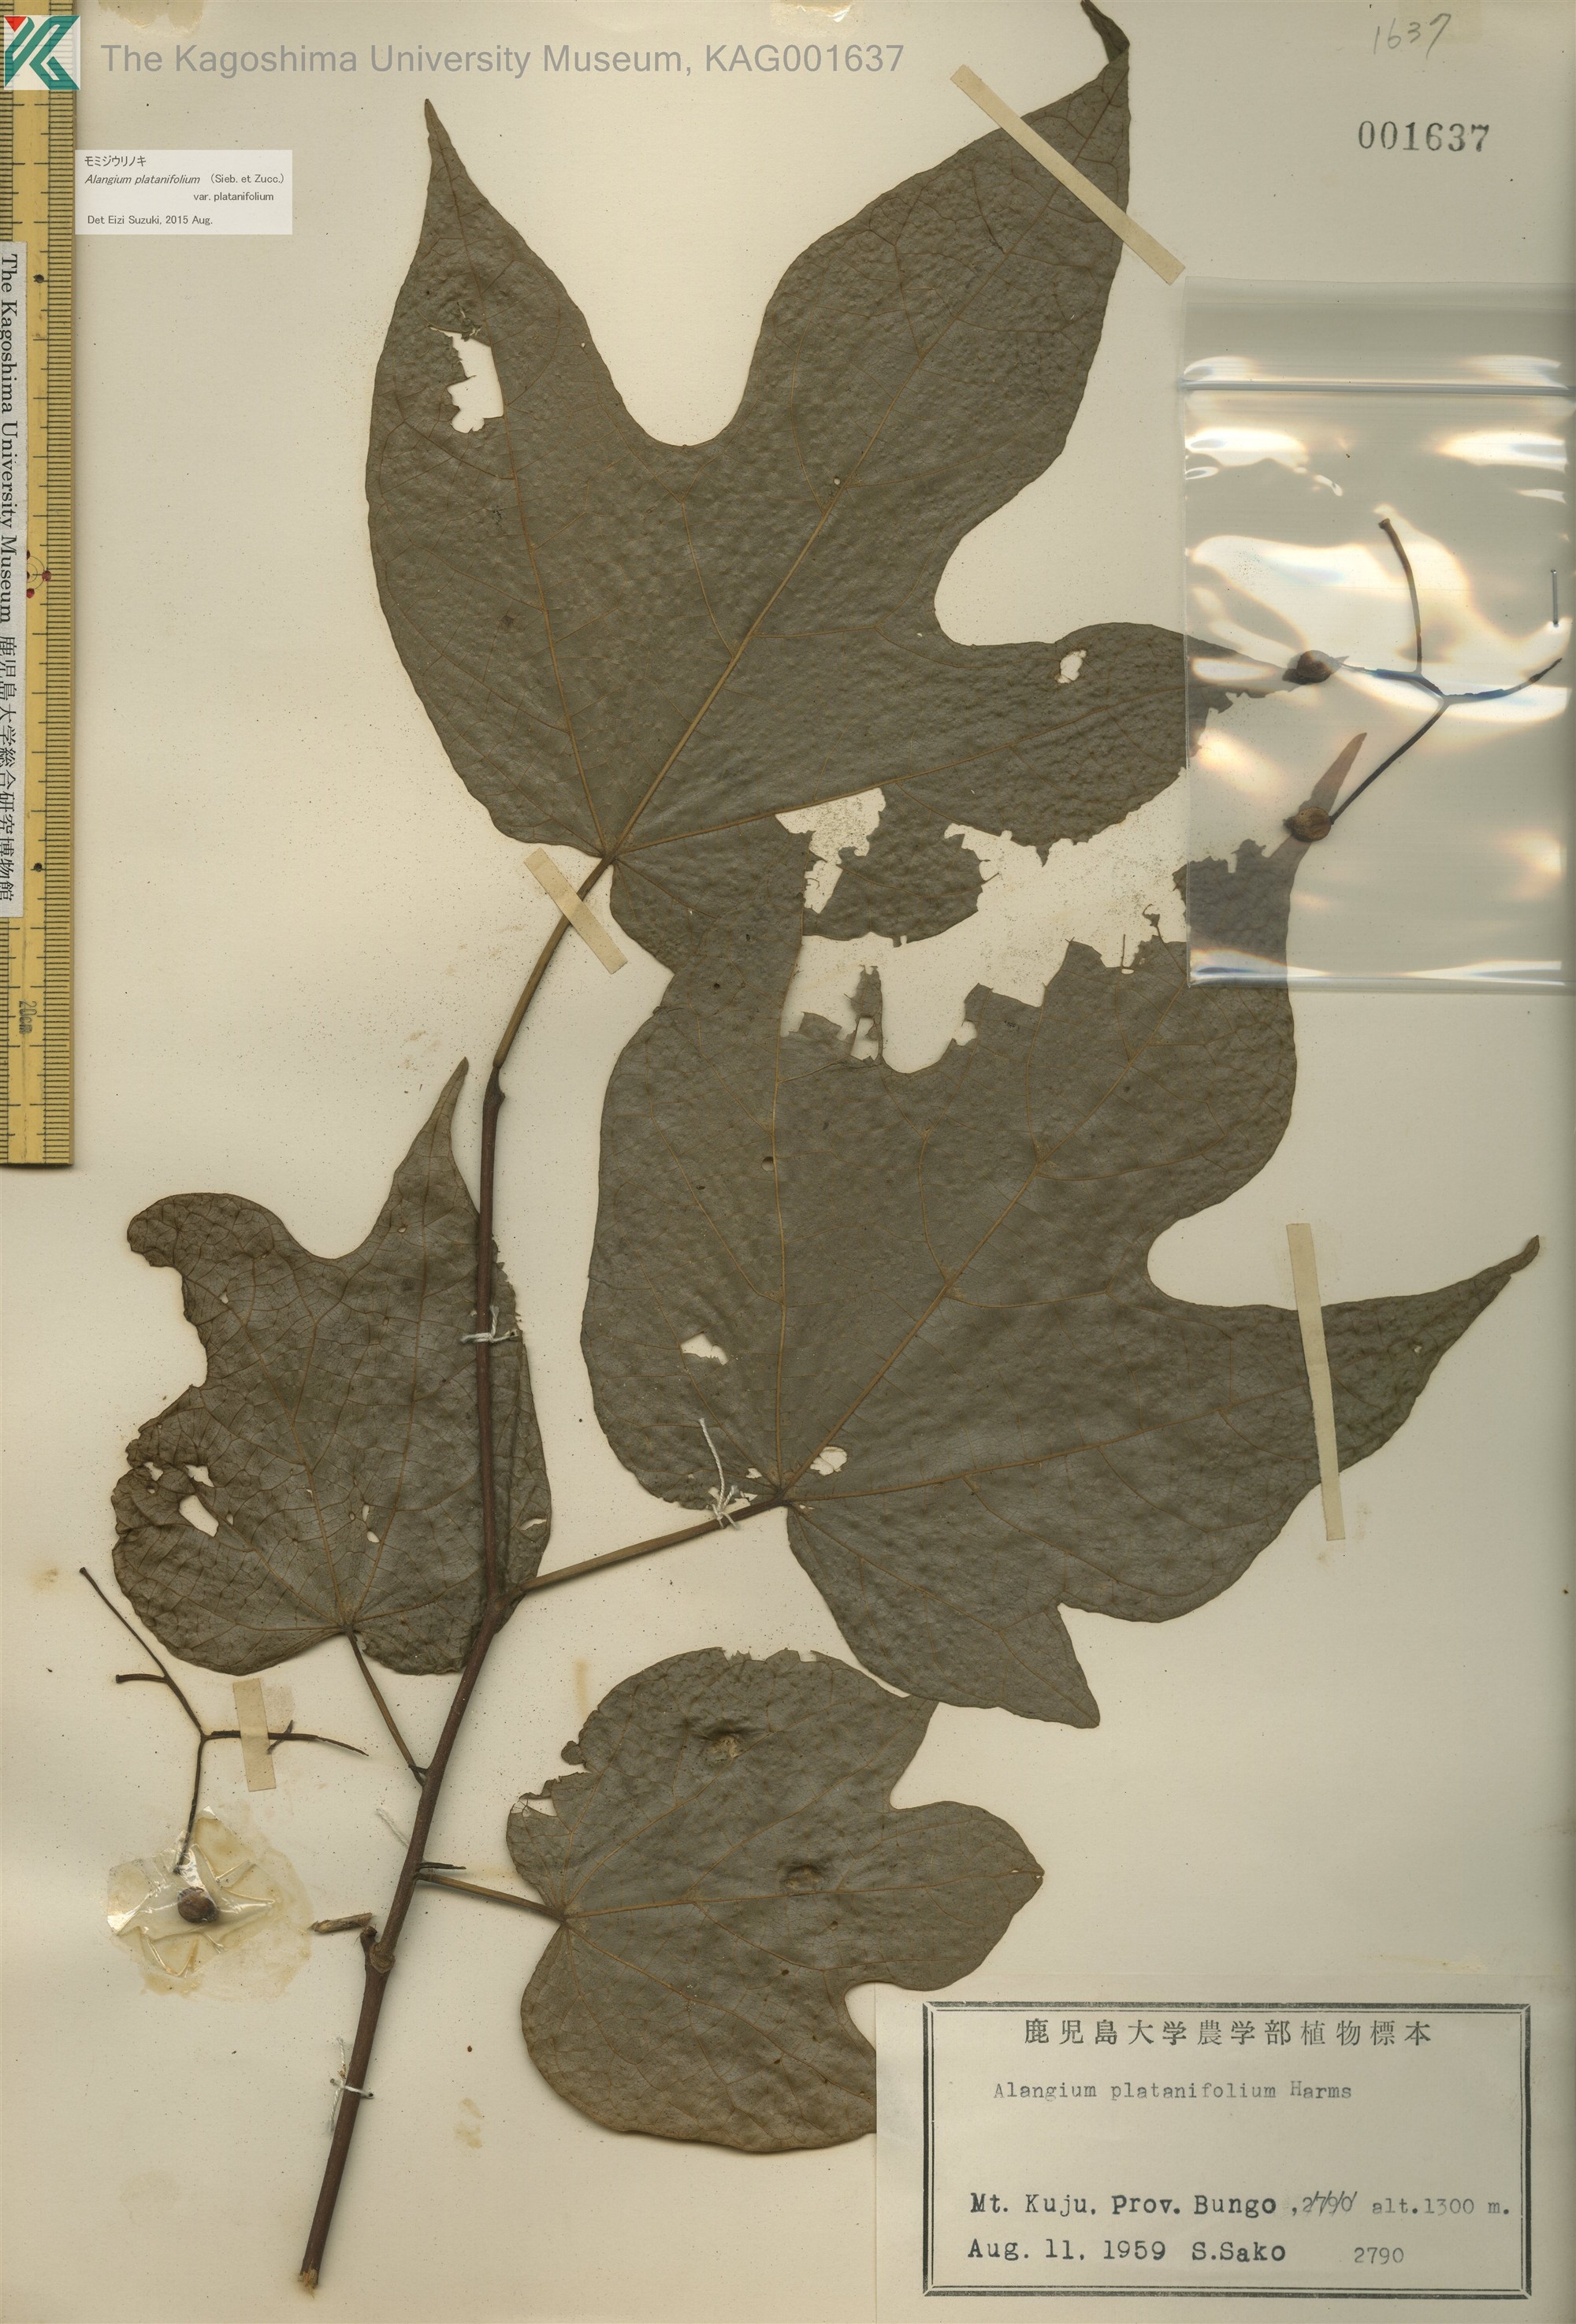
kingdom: Plantae
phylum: Tracheophyta
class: Magnoliopsida
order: Cornales
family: Cornaceae
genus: Alangium
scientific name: Alangium platanifolium
